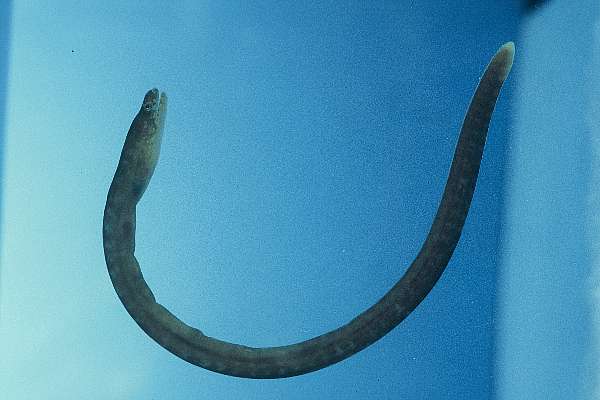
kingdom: Animalia
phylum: Chordata
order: Anguilliformes
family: Muraenidae
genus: Anarchias
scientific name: Anarchias seychellensis
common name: Seychelles moray
